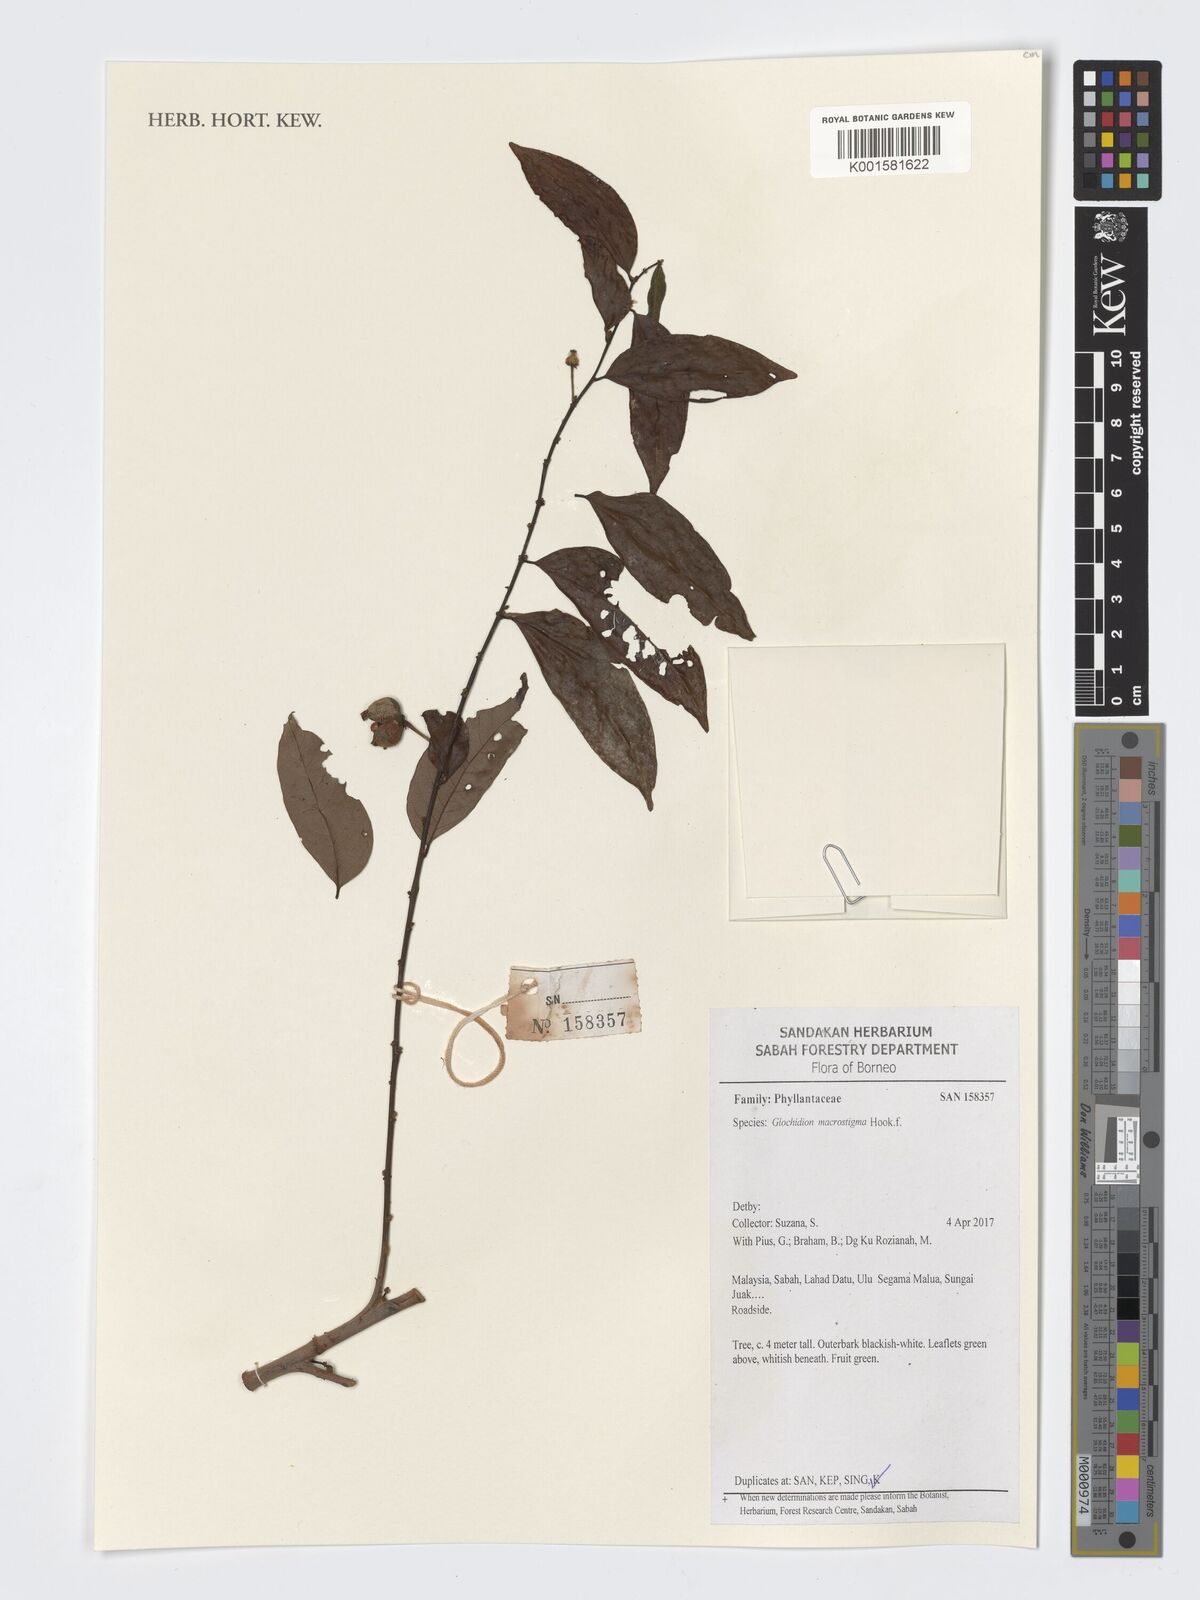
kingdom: Plantae
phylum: Tracheophyta
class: Magnoliopsida
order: Malpighiales
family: Phyllanthaceae
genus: Glochidion
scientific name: Glochidion macrostigma
